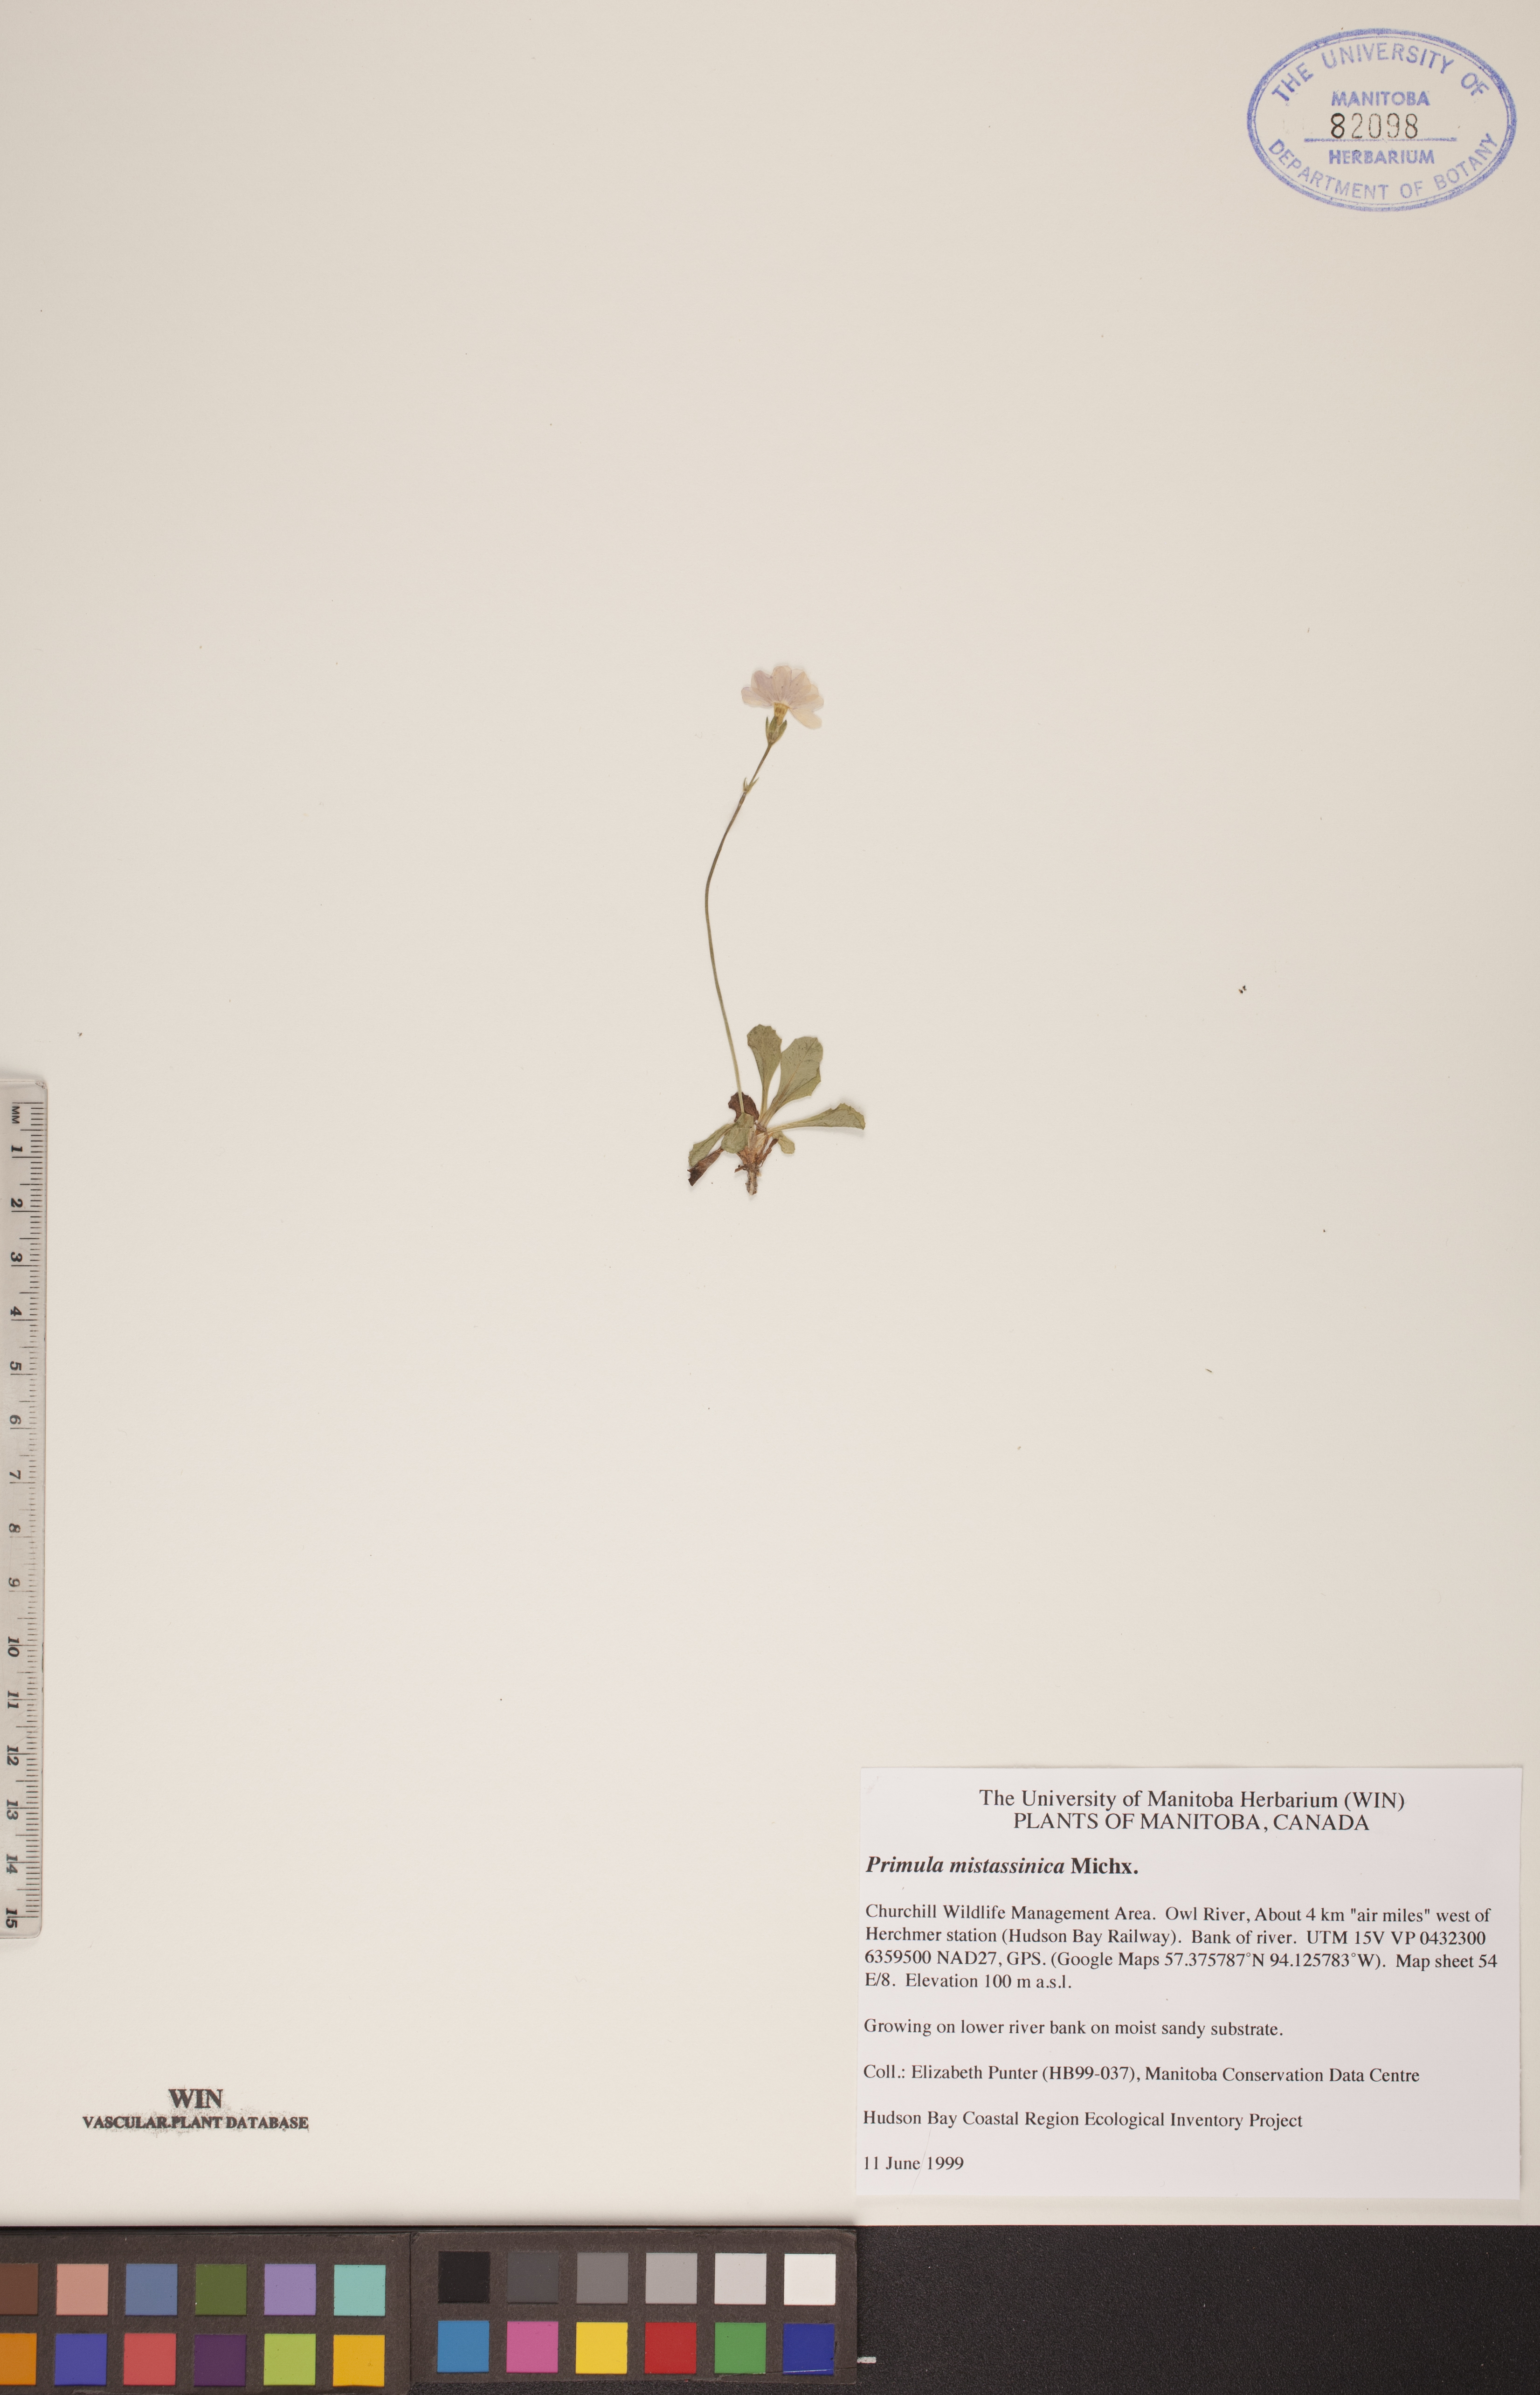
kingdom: Plantae
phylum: Tracheophyta
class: Magnoliopsida
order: Ericales
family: Primulaceae
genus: Primula
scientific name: Primula mistassinica
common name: Bird's-eye primrose
